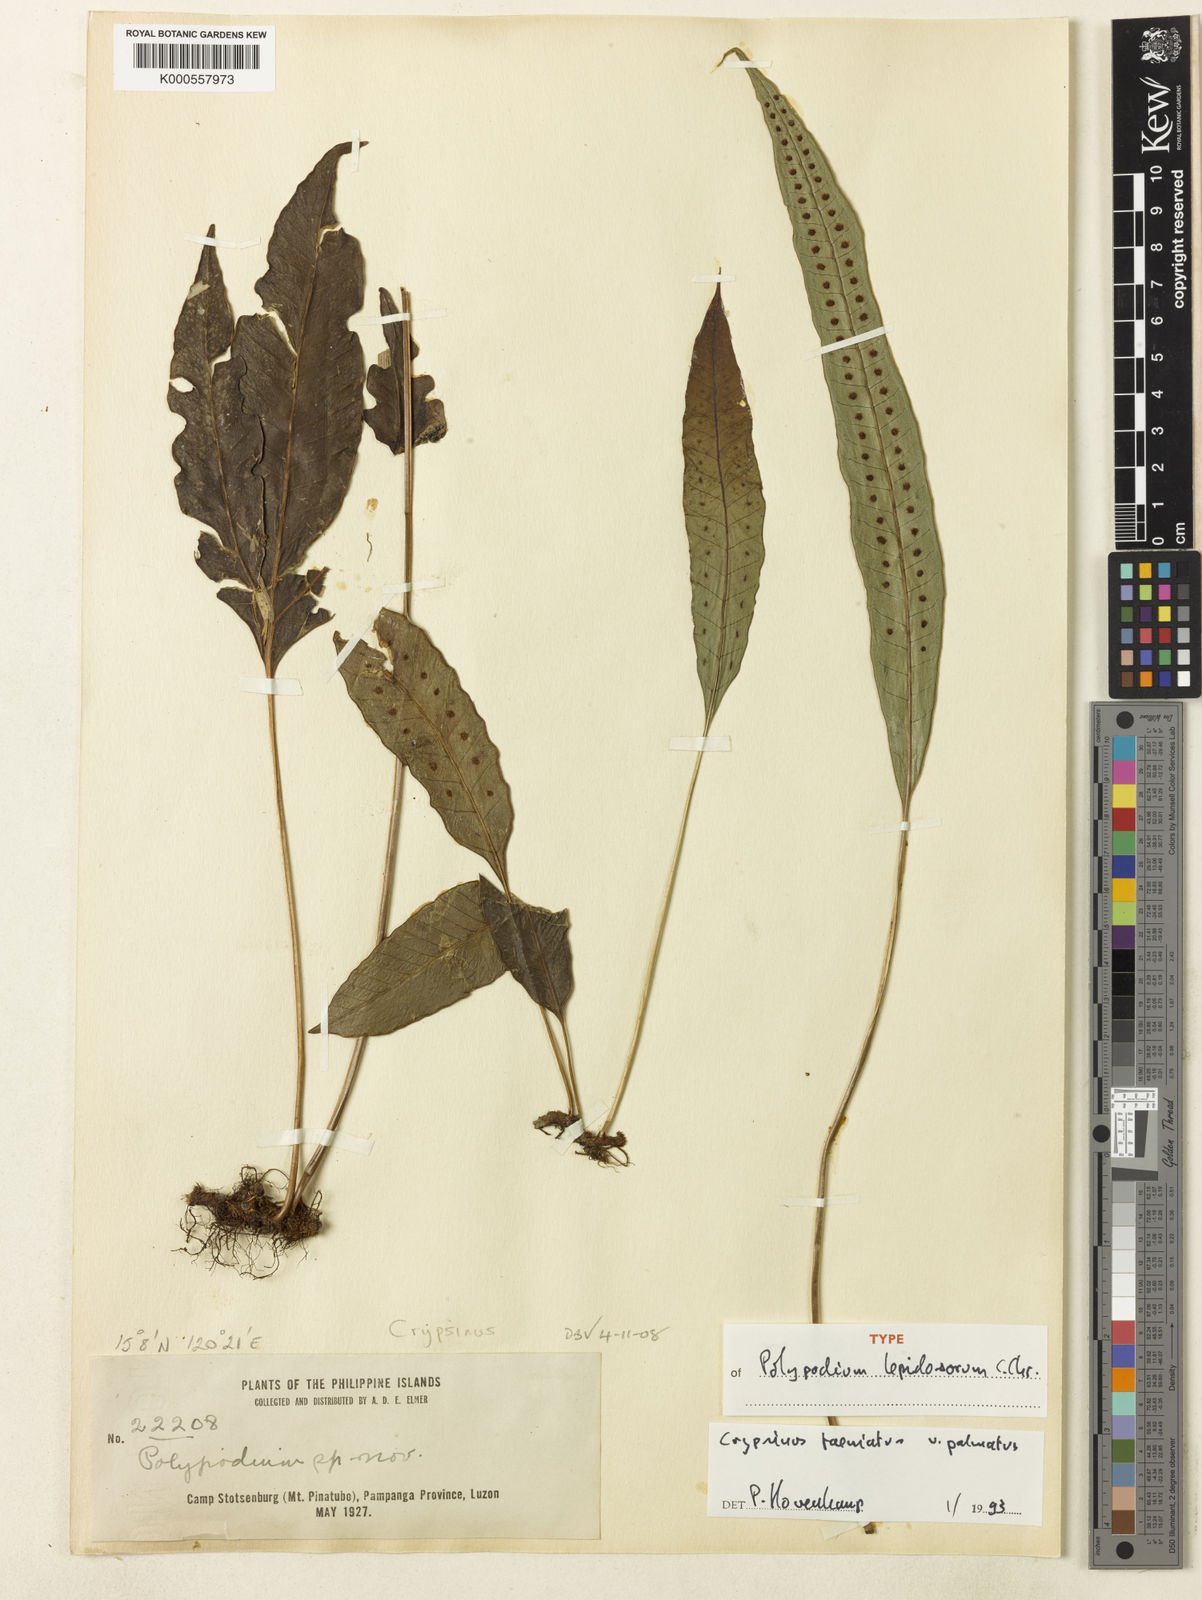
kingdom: Plantae
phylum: Tracheophyta
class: Polypodiopsida
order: Polypodiales
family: Polypodiaceae
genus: Selliguea
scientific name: Selliguea taeniata
